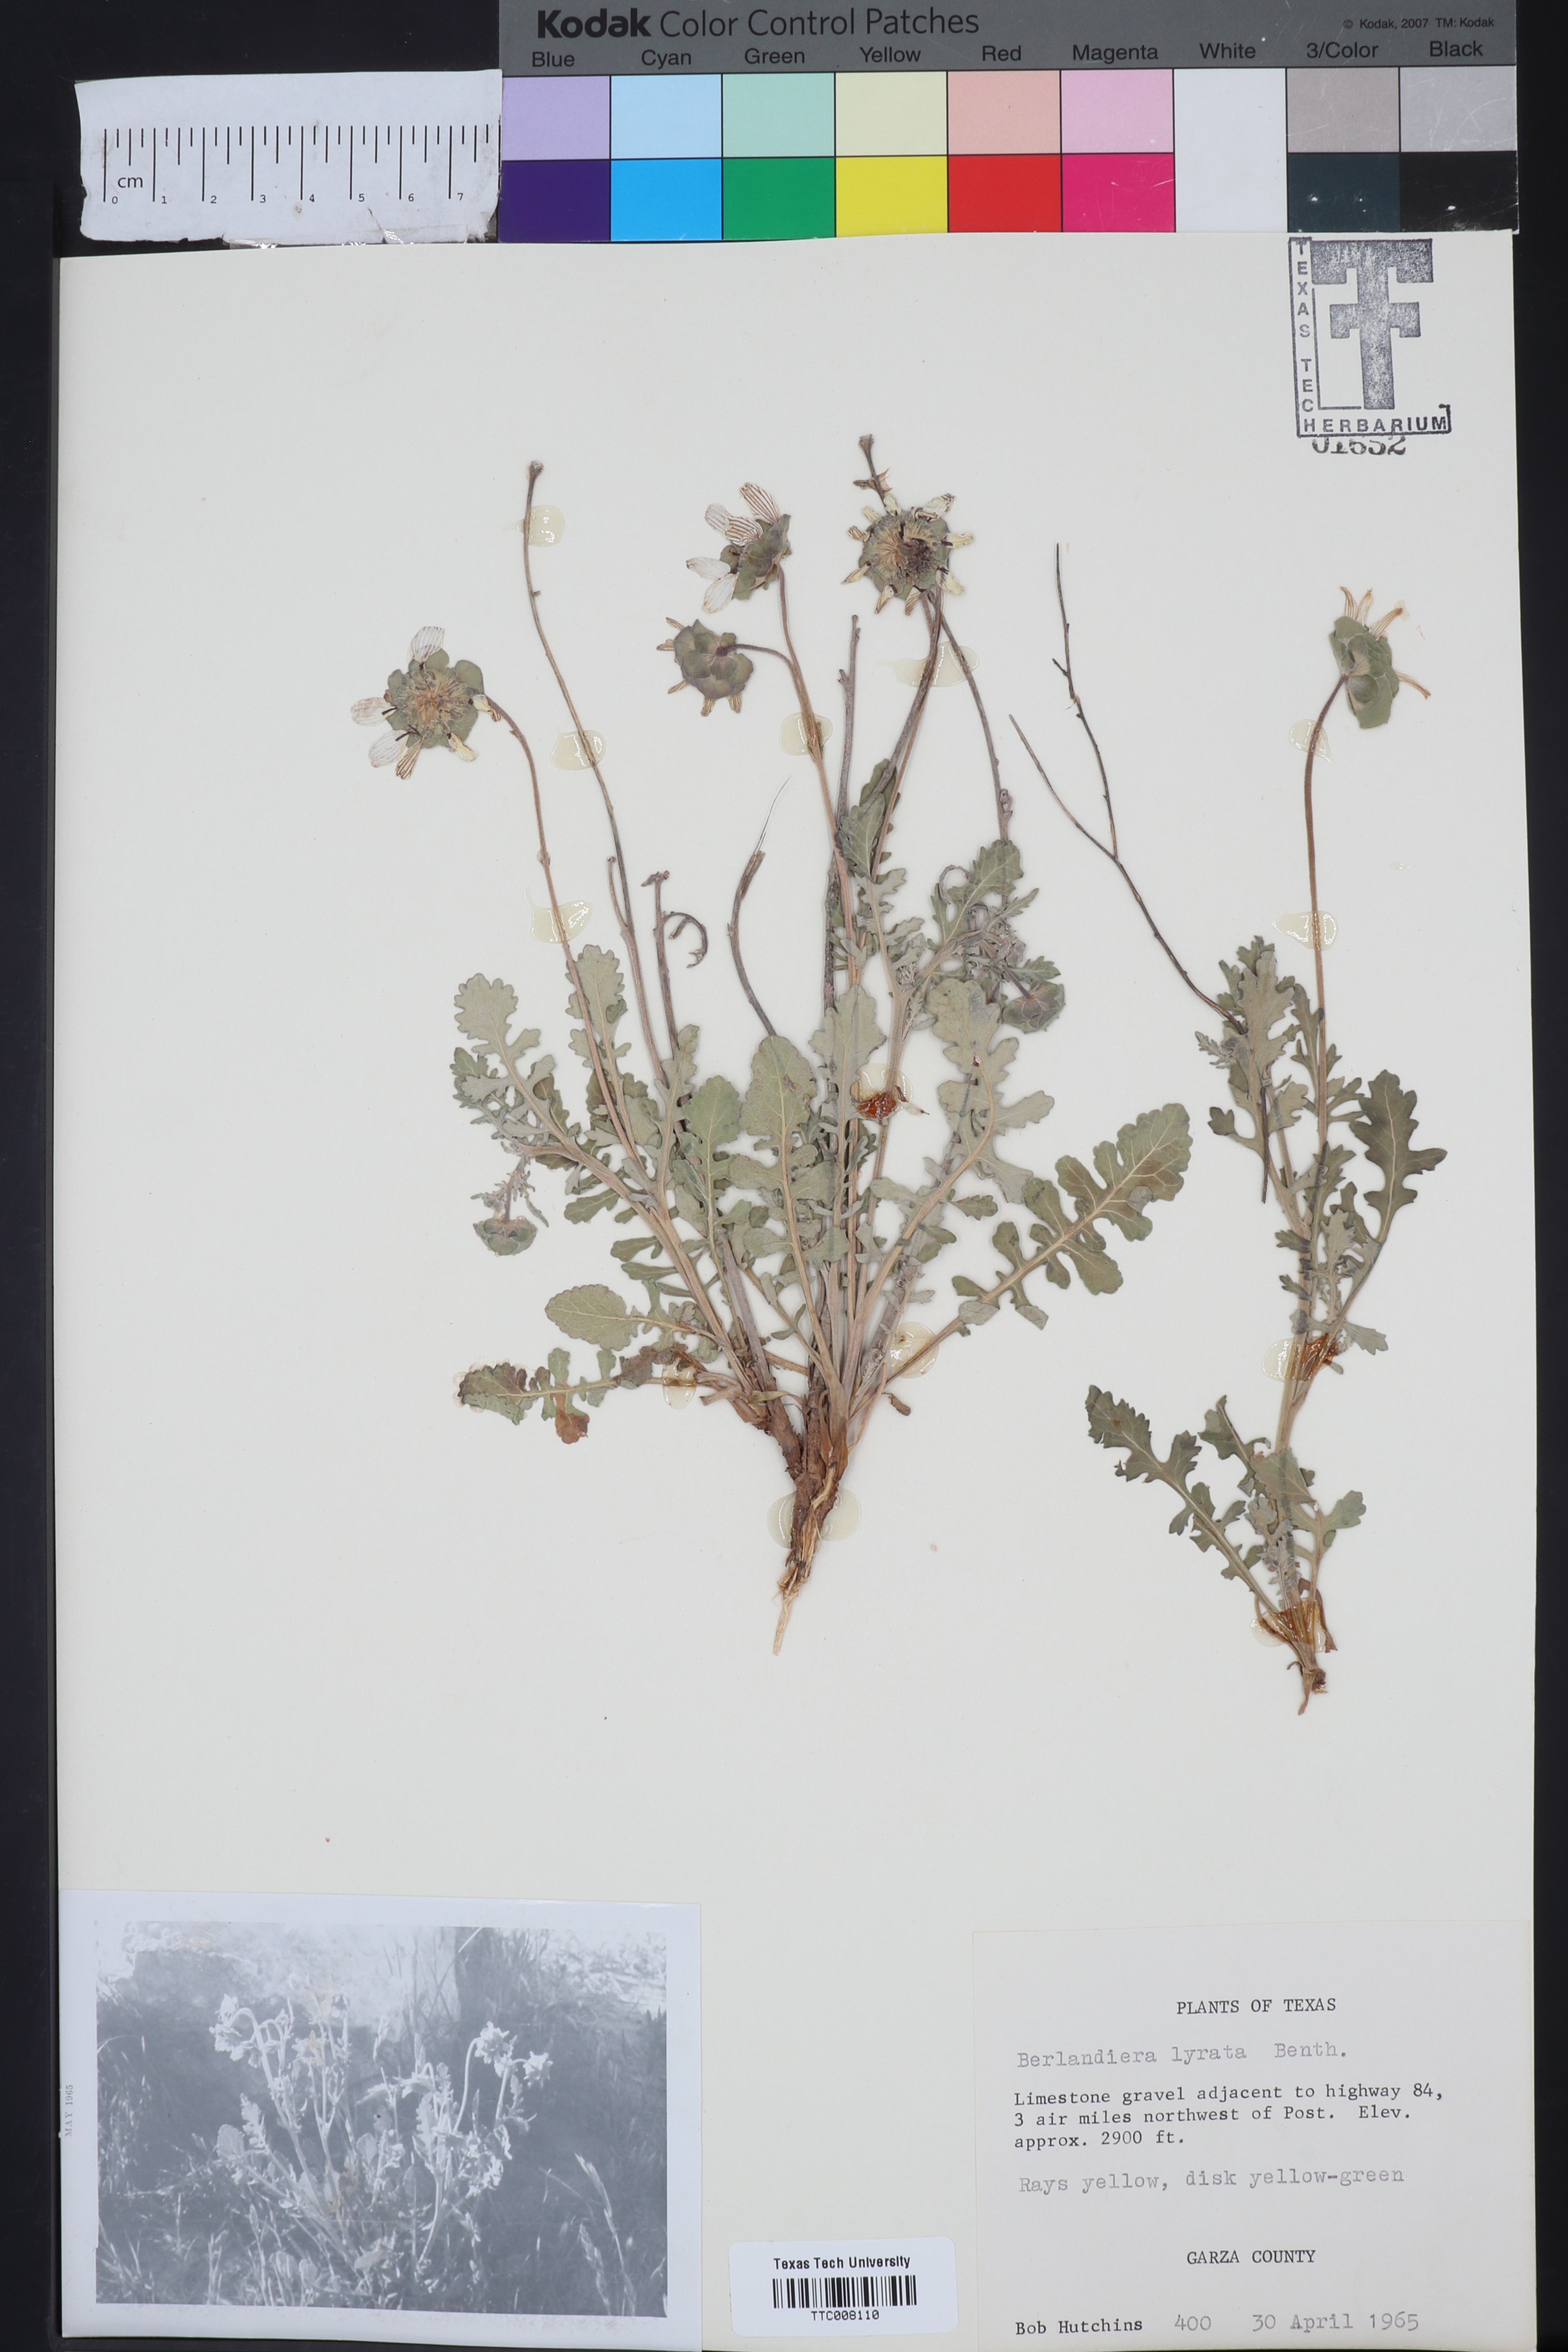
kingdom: Plantae
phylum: Tracheophyta
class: Magnoliopsida
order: Asterales
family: Asteraceae
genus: Berlandiera
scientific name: Berlandiera lyrata
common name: Chocolate-flower
